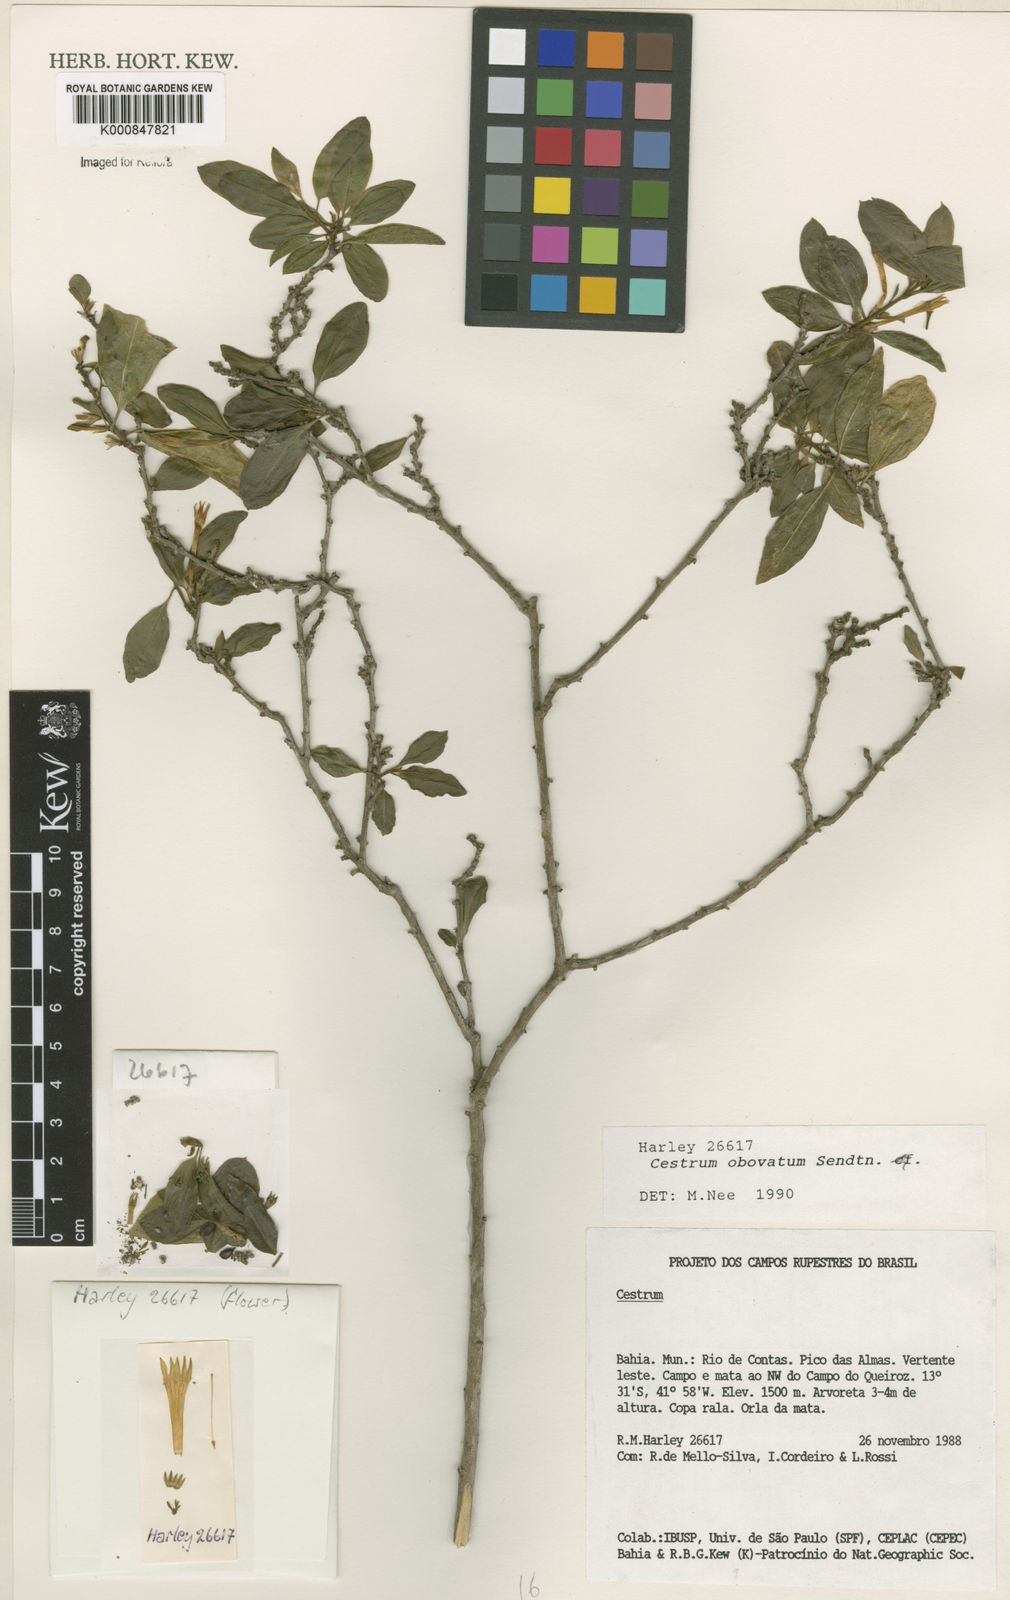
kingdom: Plantae
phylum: Tracheophyta
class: Magnoliopsida
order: Solanales
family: Solanaceae
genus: Cestrum
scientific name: Cestrum obovatum
